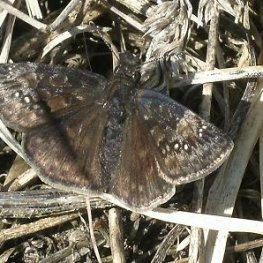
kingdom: Animalia
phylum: Arthropoda
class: Insecta
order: Lepidoptera
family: Hesperiidae
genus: Gesta
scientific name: Gesta
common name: Juvenal's Duskywing
